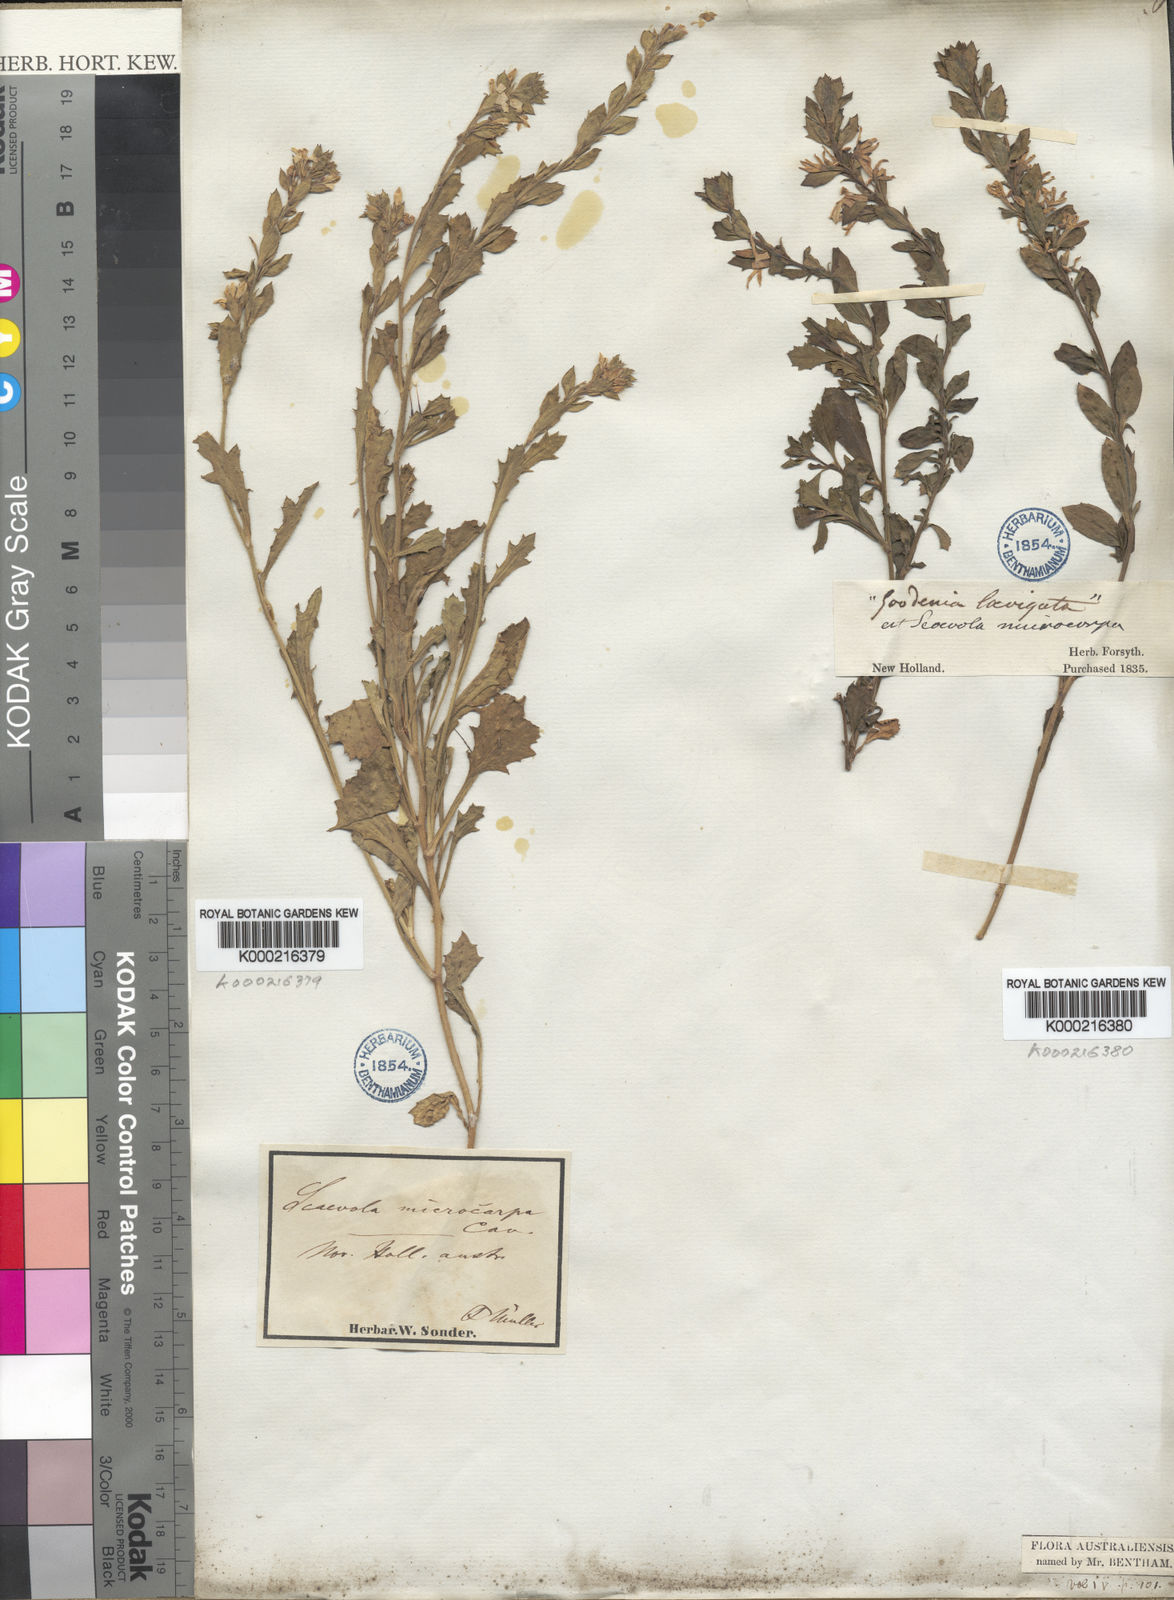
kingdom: Plantae
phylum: Tracheophyta
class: Magnoliopsida
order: Asterales
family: Goodeniaceae
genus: Scaevola
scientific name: Scaevola albida
